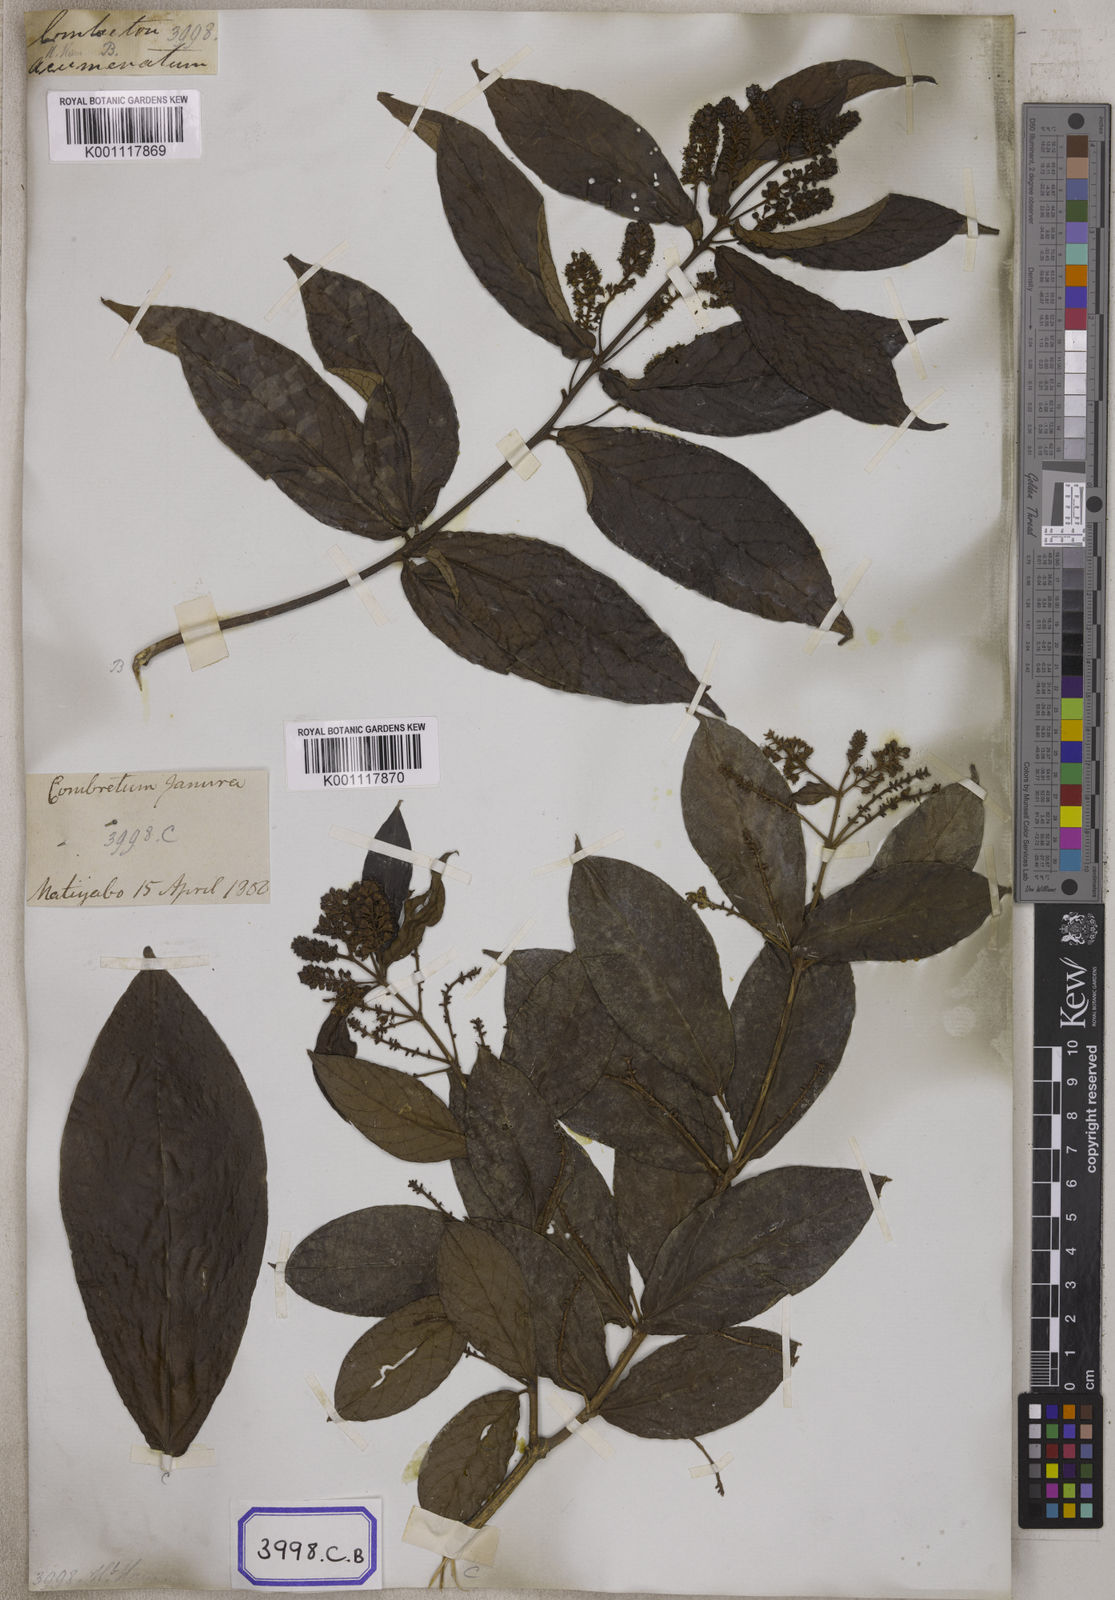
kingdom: Plantae
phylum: Tracheophyta
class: Magnoliopsida
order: Myrtales
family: Combretaceae
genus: Combretum
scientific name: Combretum acuminatum
